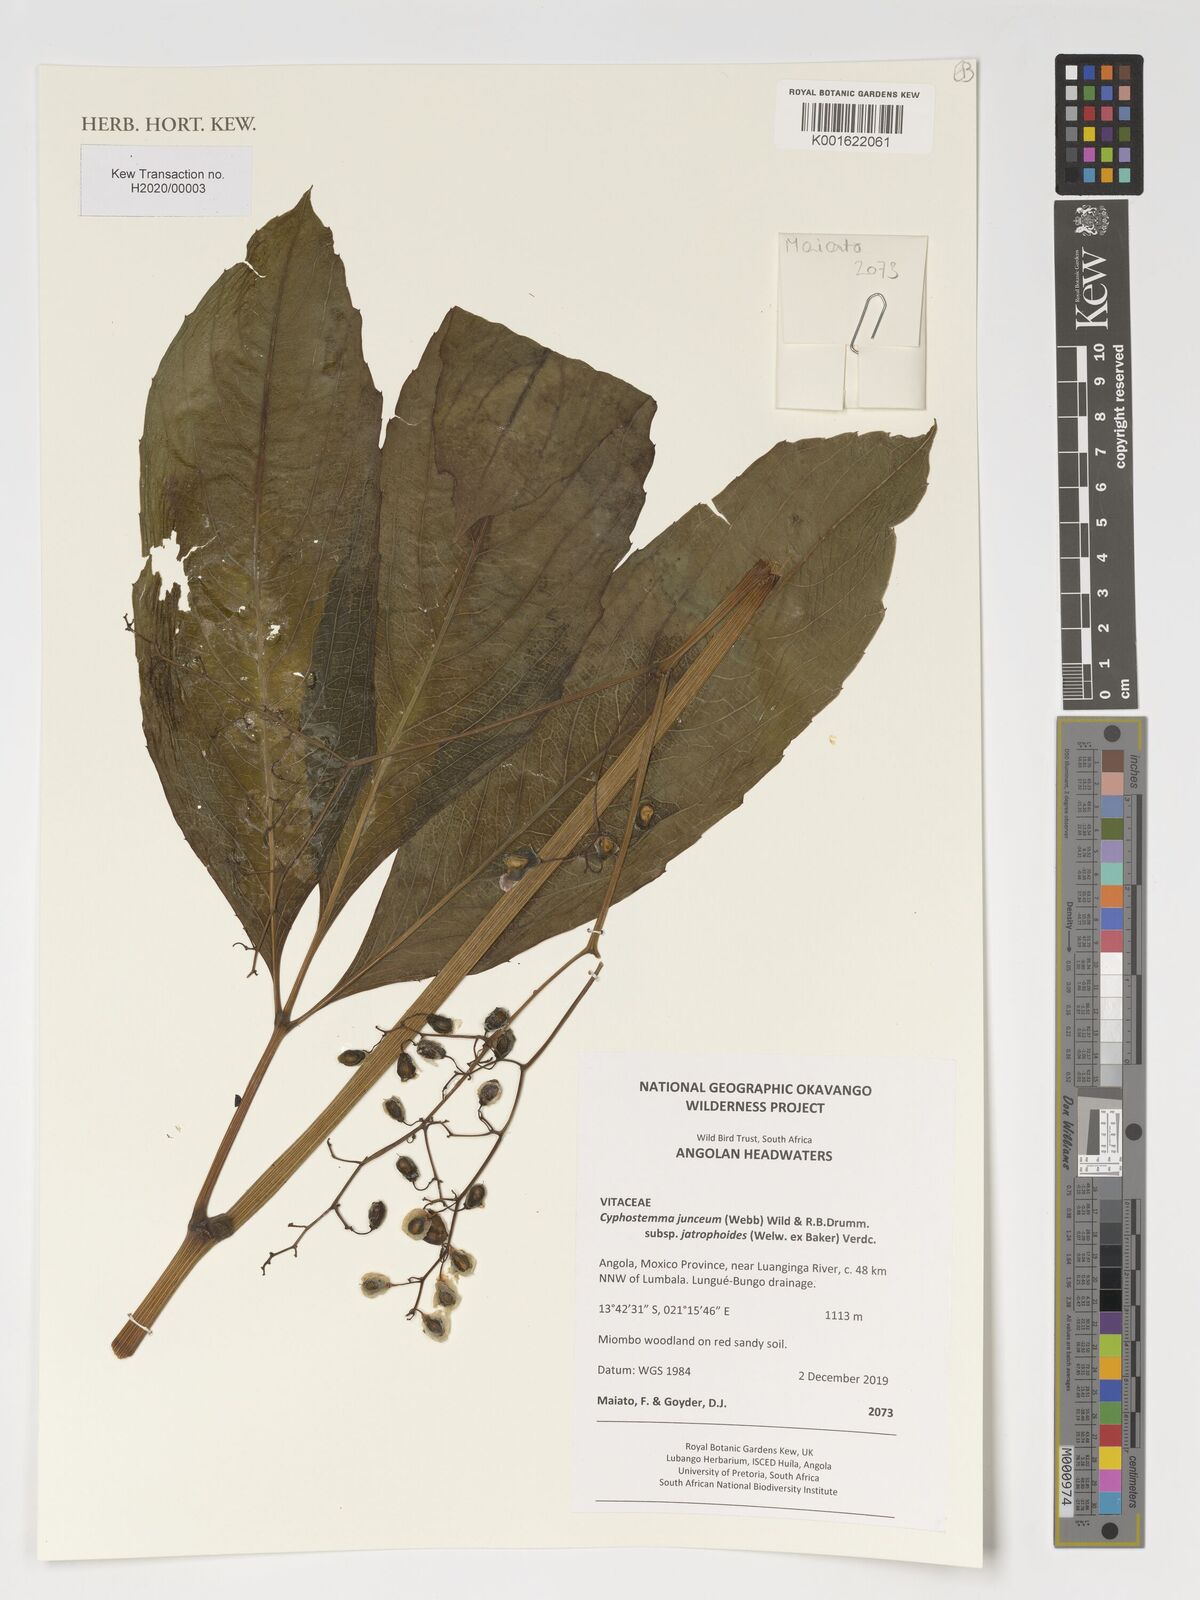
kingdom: Plantae
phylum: Tracheophyta
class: Magnoliopsida
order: Vitales
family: Vitaceae
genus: Cyphostemma
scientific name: Cyphostemma junceum
